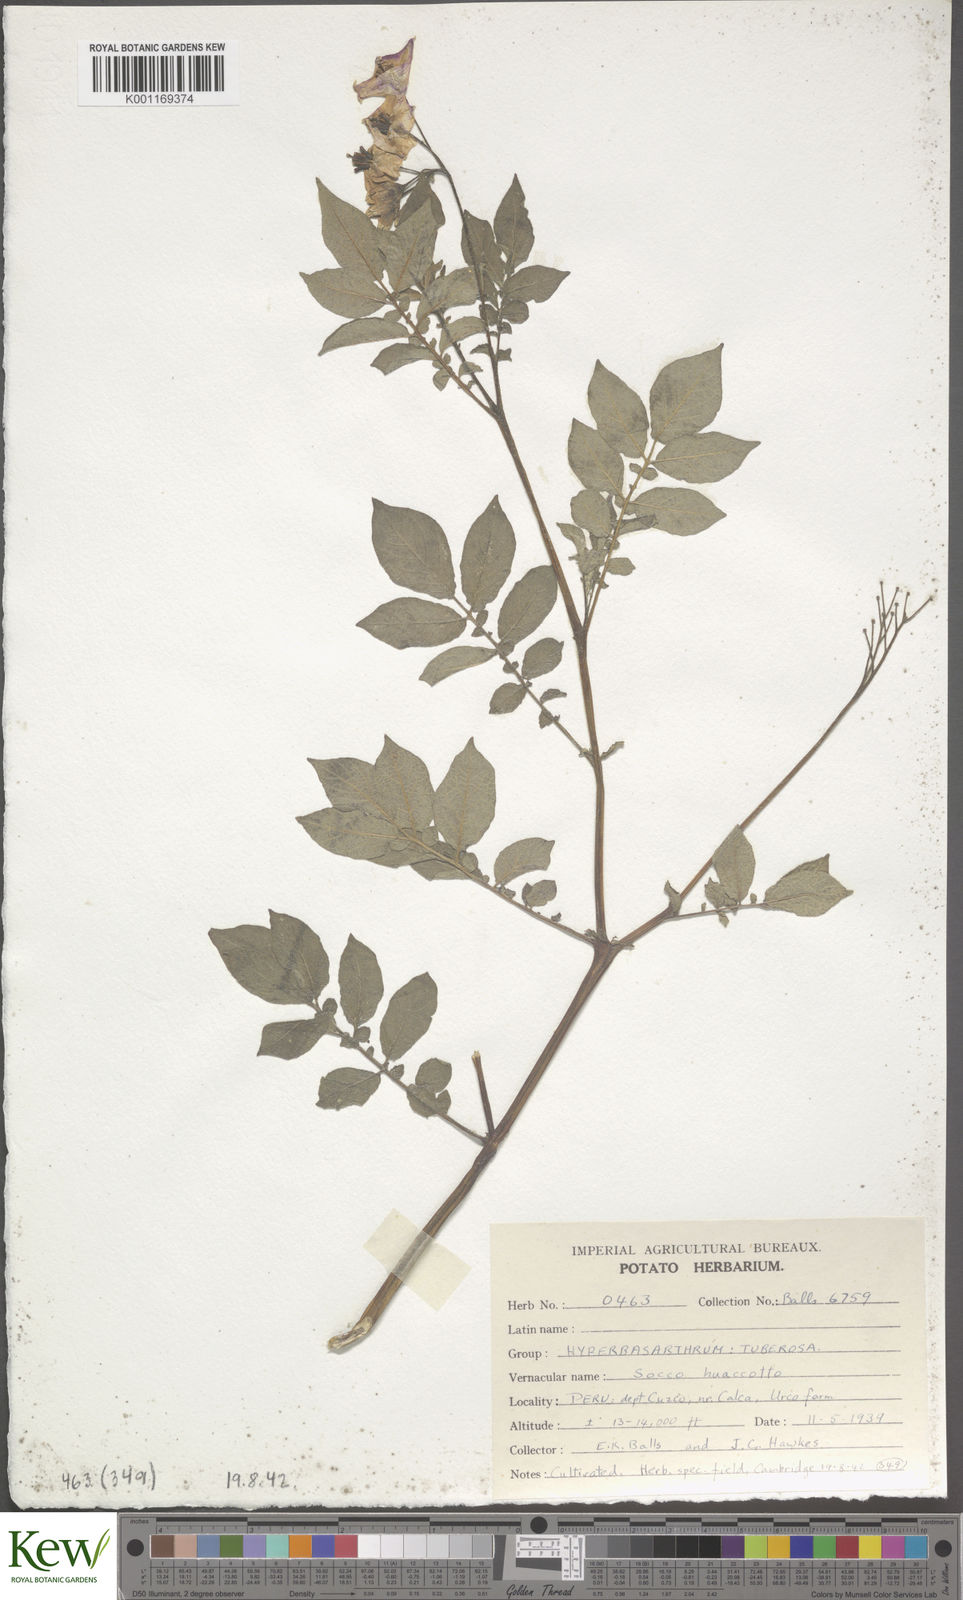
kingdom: Plantae
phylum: Tracheophyta
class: Magnoliopsida
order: Solanales
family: Solanaceae
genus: Solanum
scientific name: Solanum chaucha
